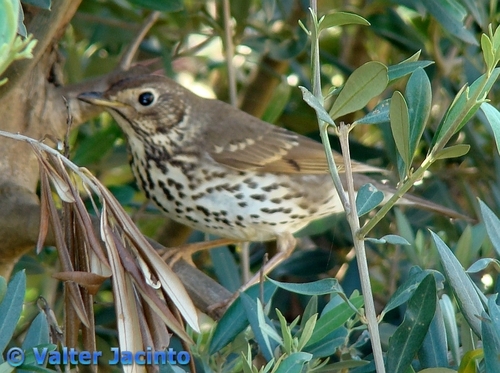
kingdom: Animalia
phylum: Chordata
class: Aves
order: Passeriformes
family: Turdidae
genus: Turdus
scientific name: Turdus philomelos
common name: Song thrush
